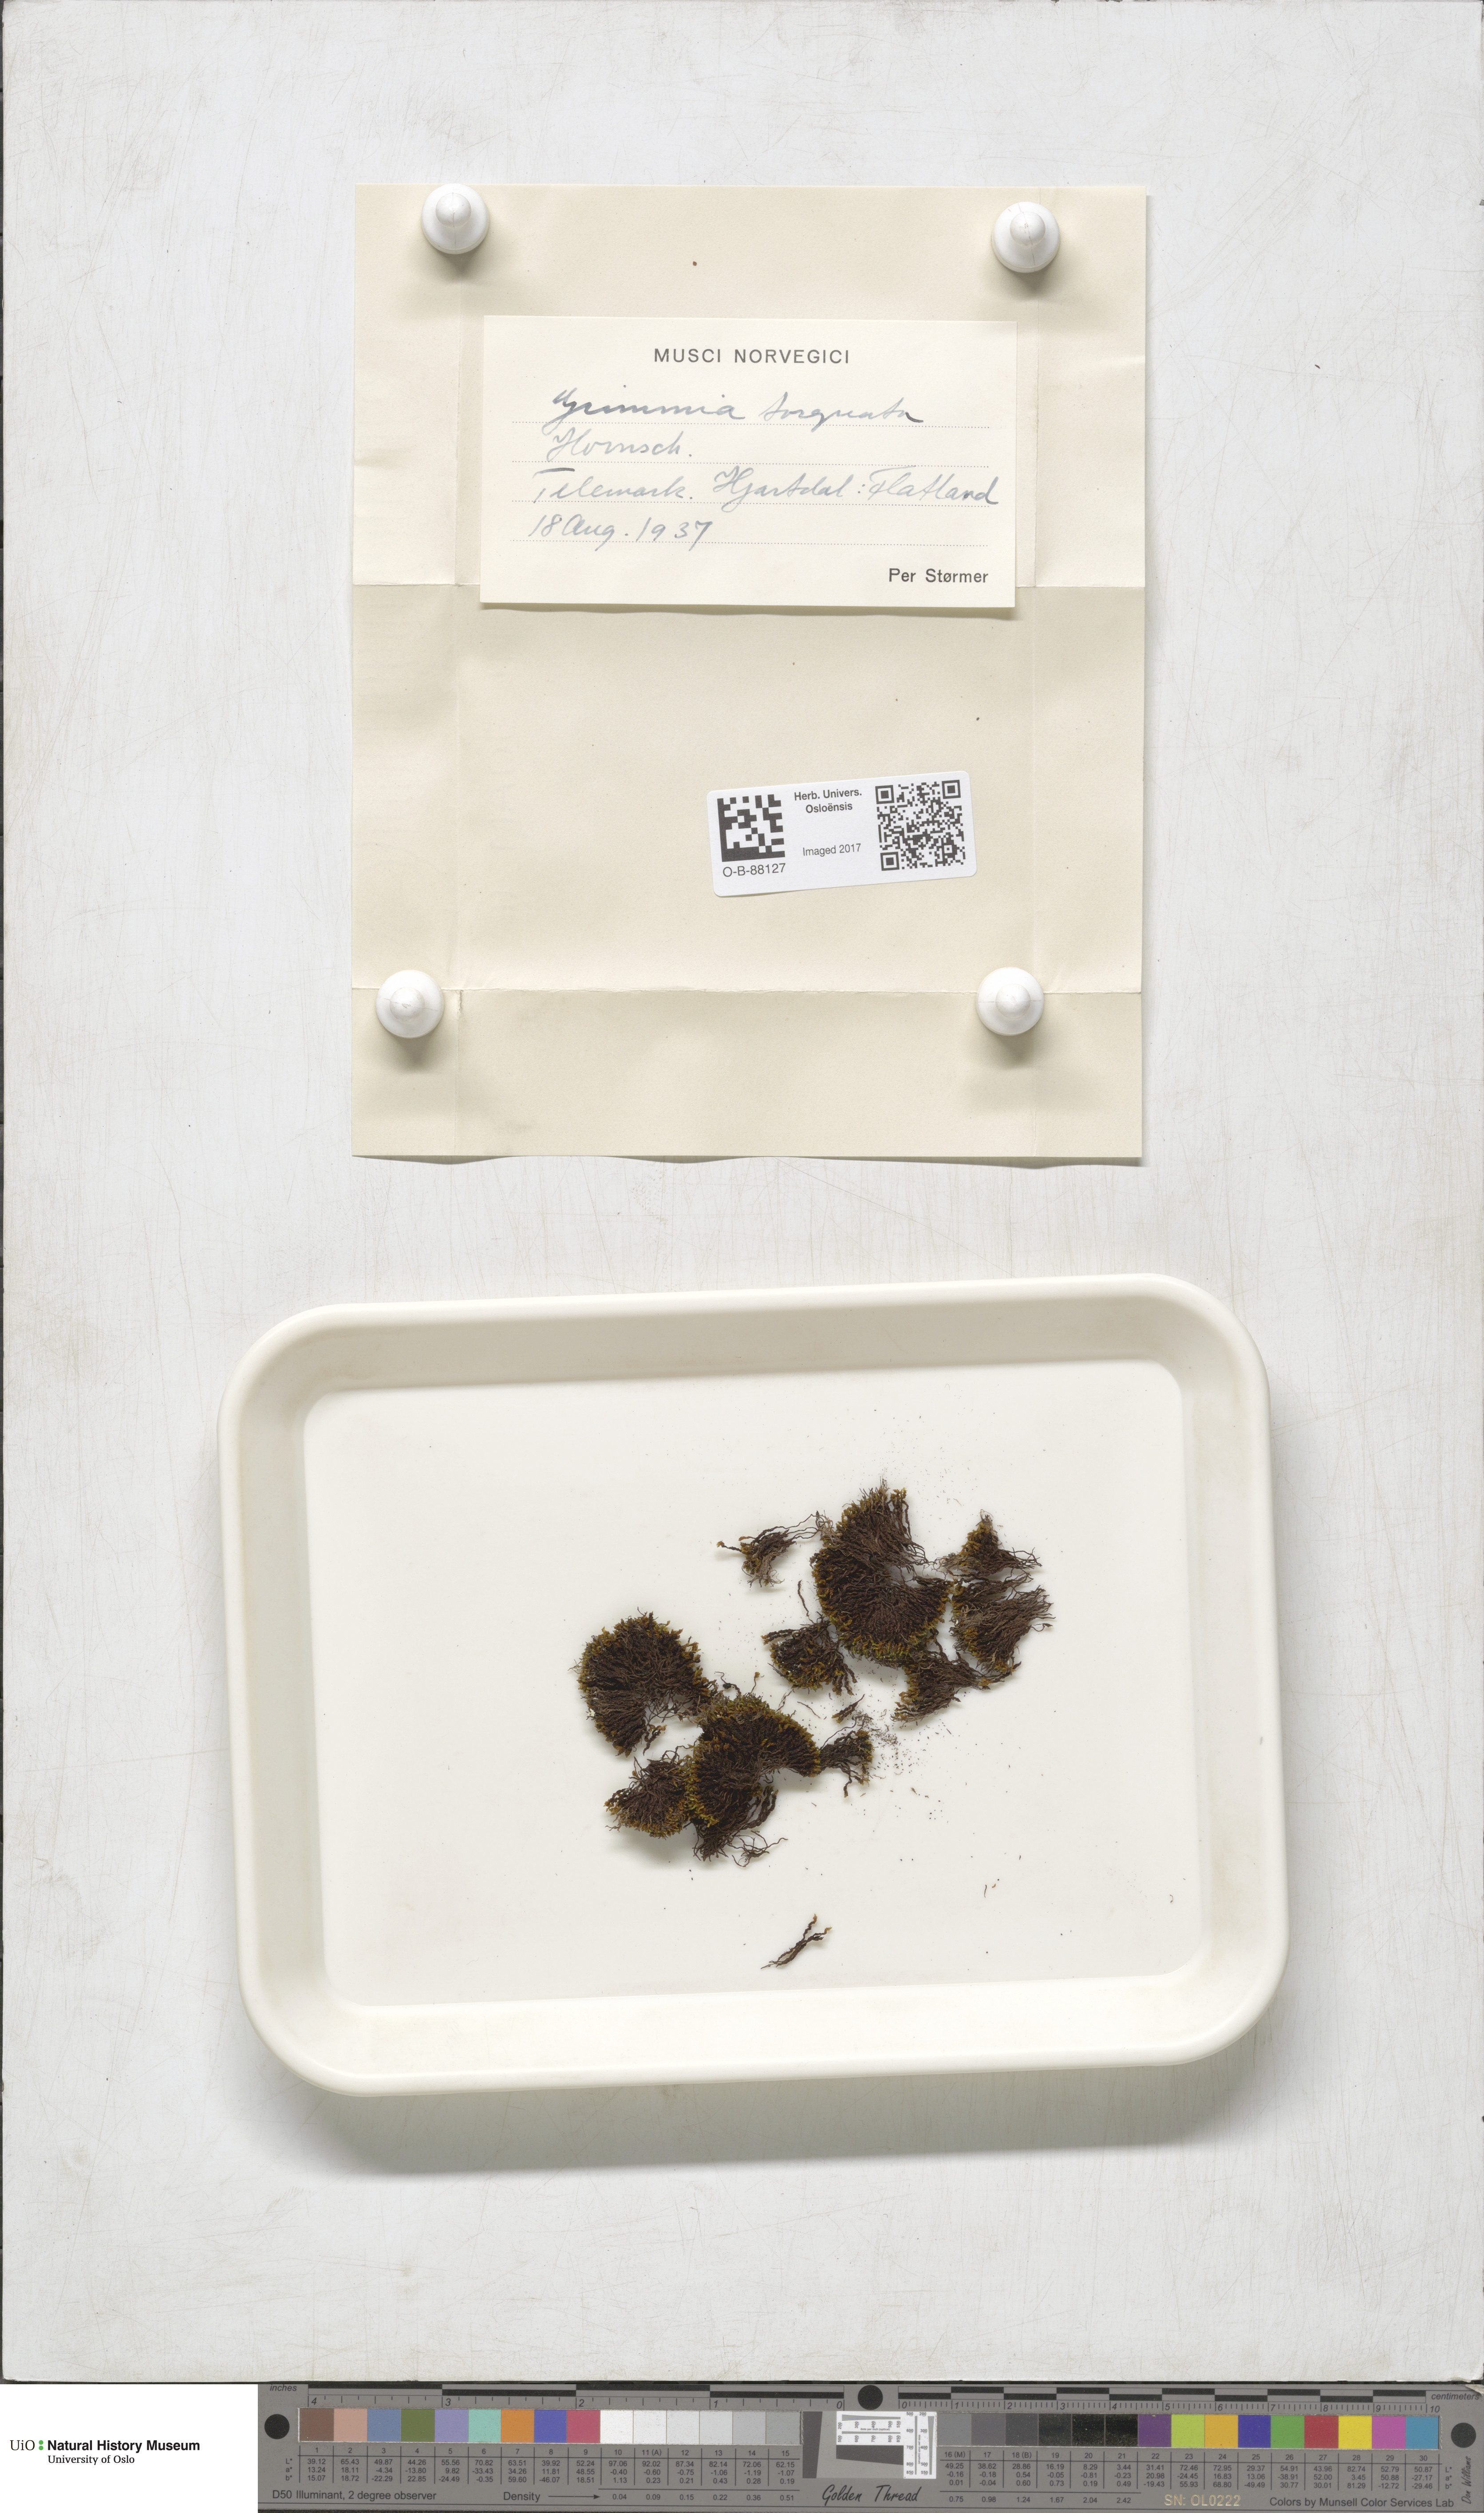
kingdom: Plantae
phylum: Bryophyta
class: Bryopsida
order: Grimmiales
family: Grimmiaceae
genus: Grimmia
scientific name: Grimmia torquata
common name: Twisted grimmia
